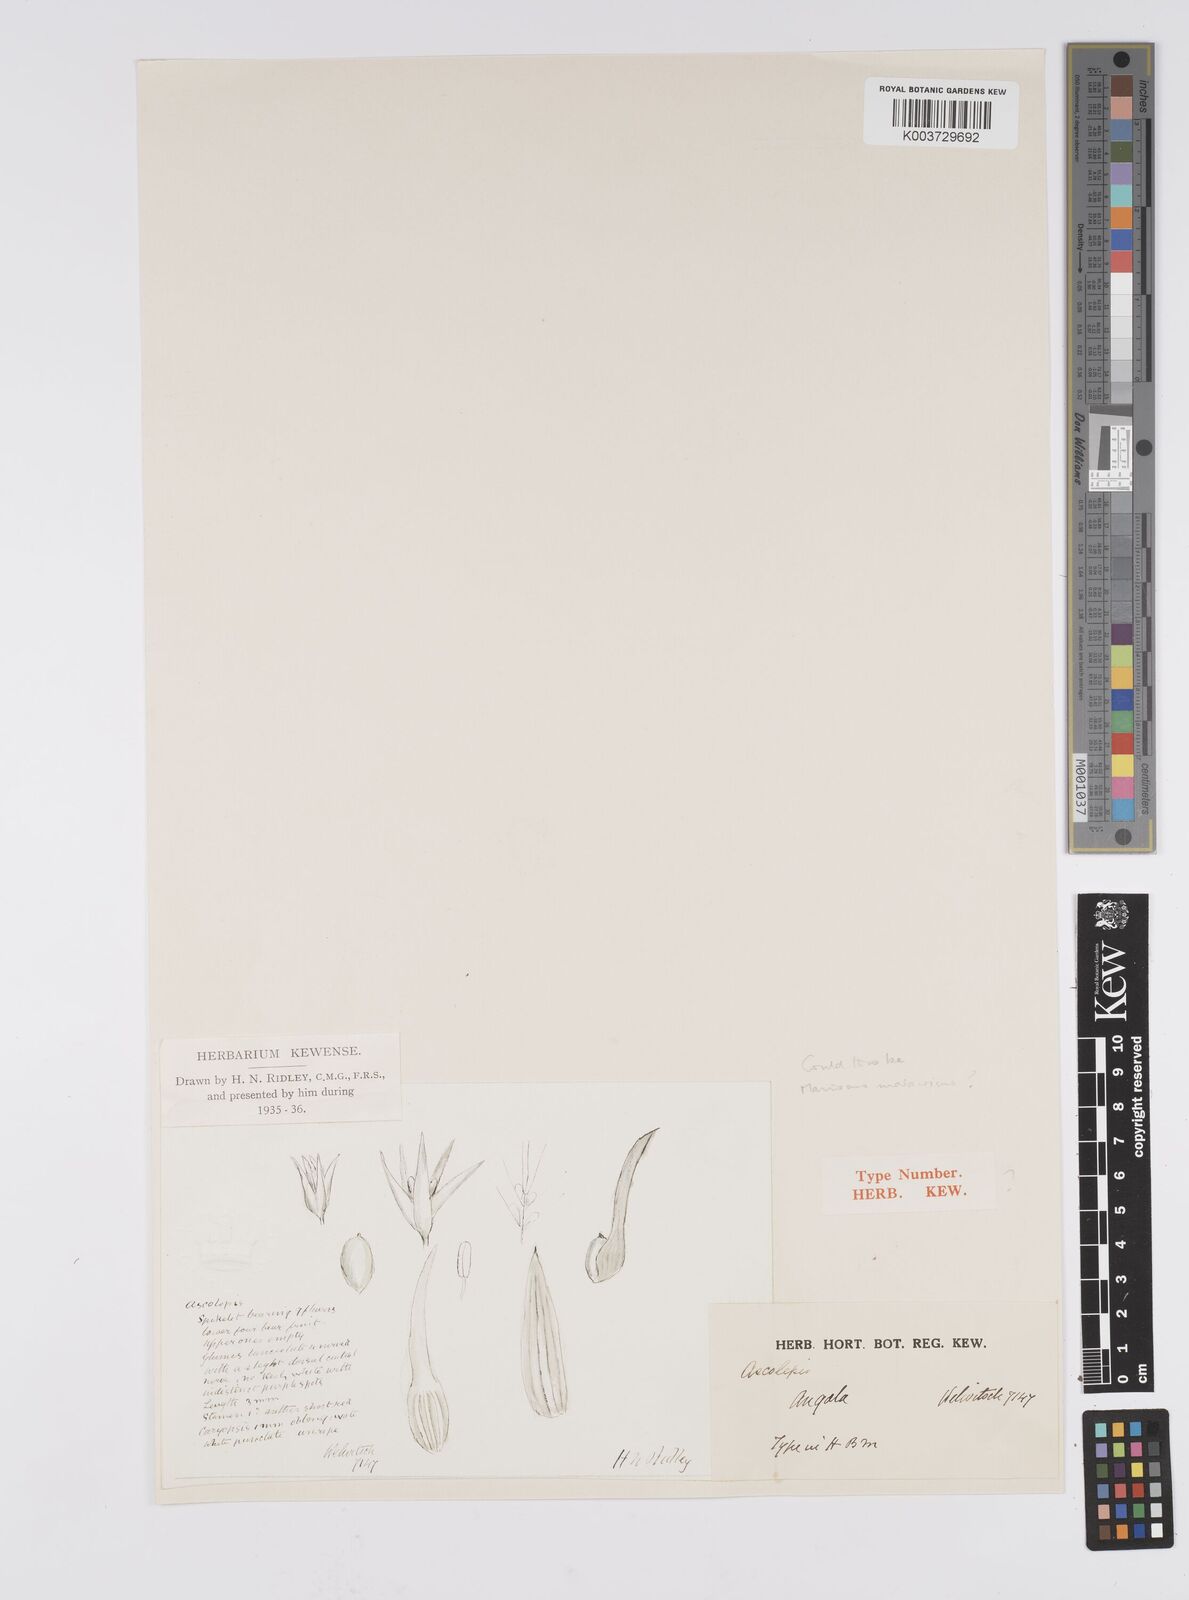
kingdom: Plantae
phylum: Tracheophyta
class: Liliopsida
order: Poales
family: Cyperaceae
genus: Cyperus
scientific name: Cyperus
